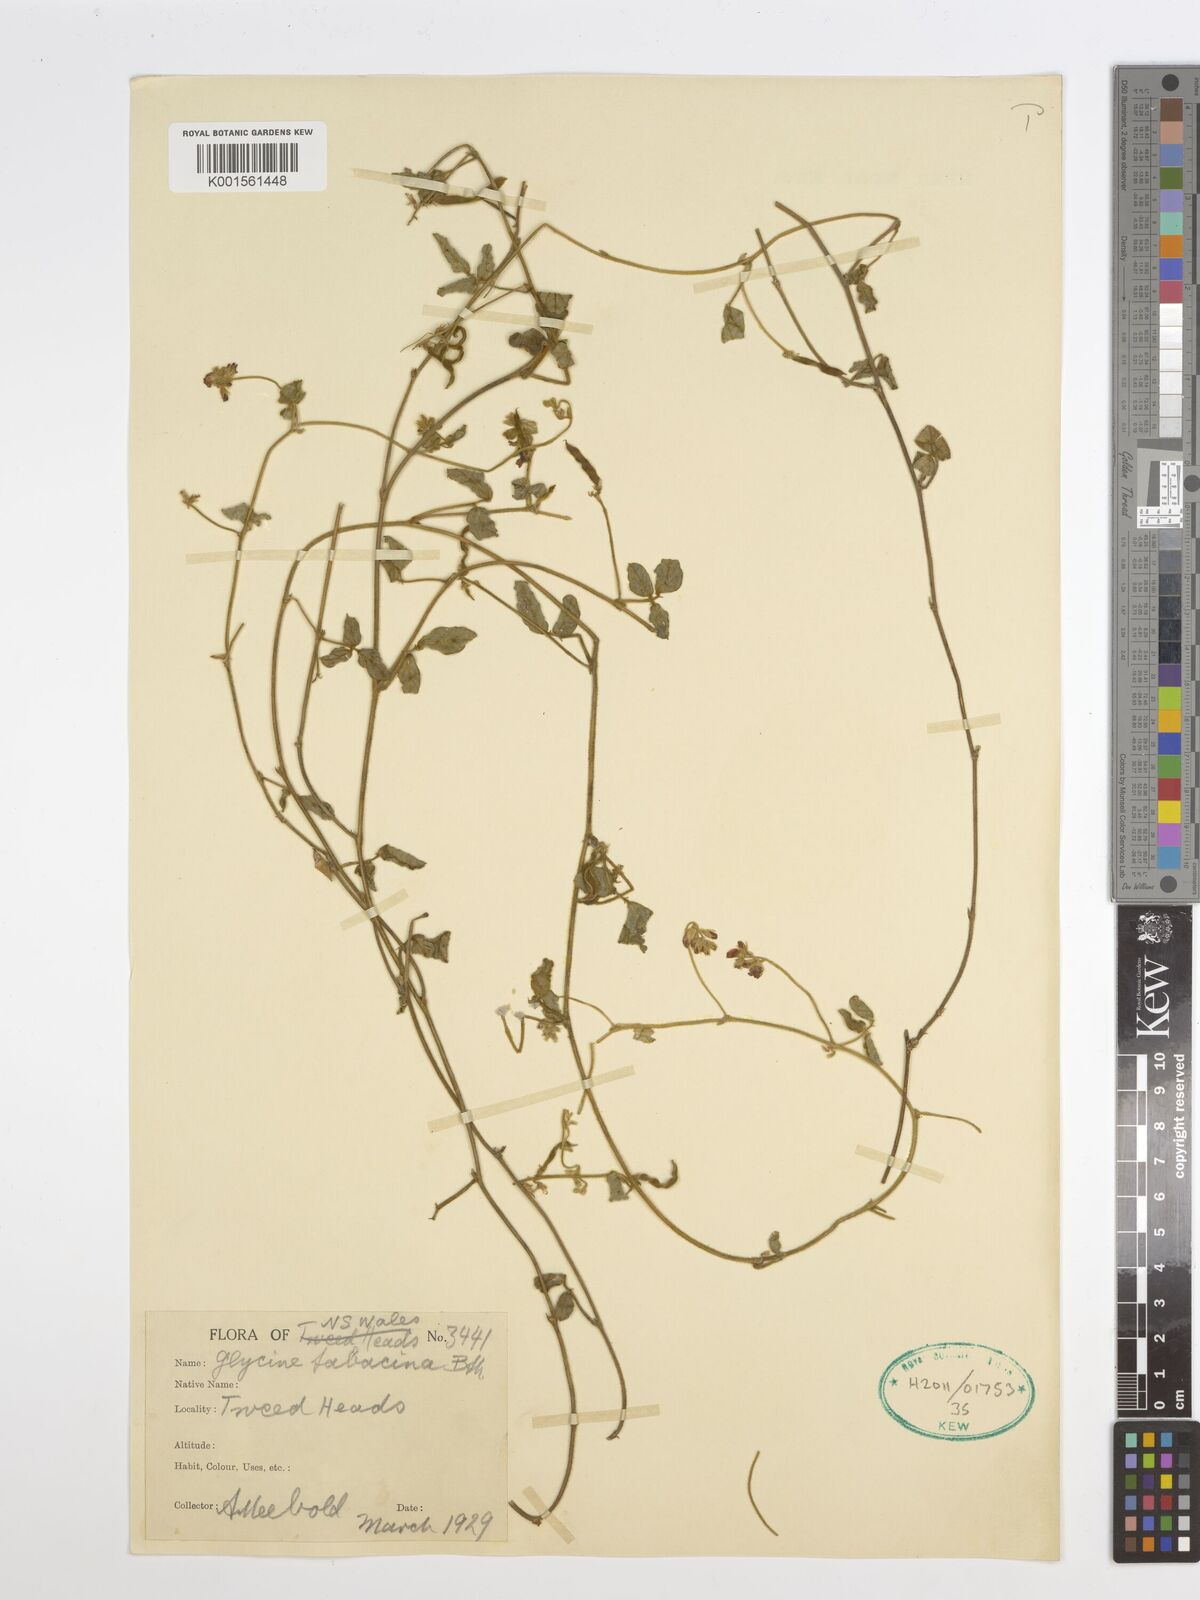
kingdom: Plantae
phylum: Tracheophyta
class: Magnoliopsida
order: Fabales
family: Fabaceae
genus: Glycine
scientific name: Glycine tomentella
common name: Hairy glycine
